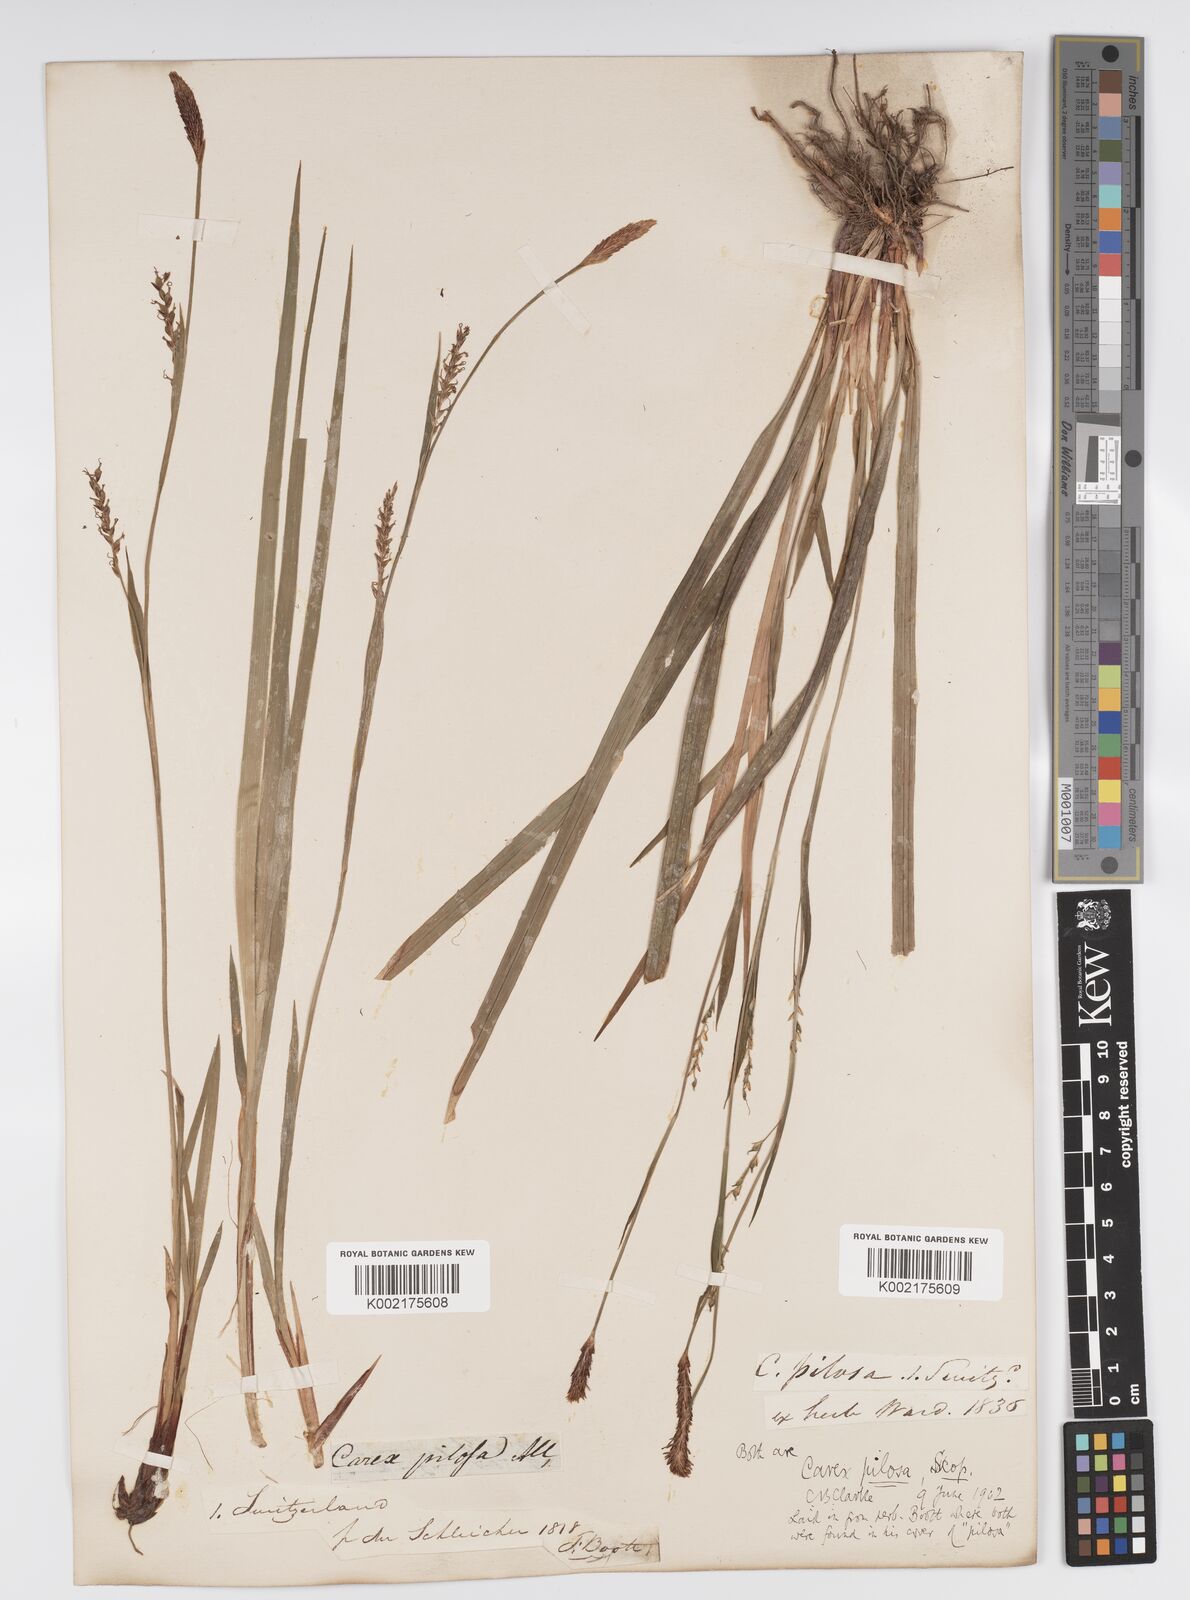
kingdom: Plantae
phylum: Tracheophyta
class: Liliopsida
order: Poales
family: Cyperaceae
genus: Carex
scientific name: Carex pilosa
